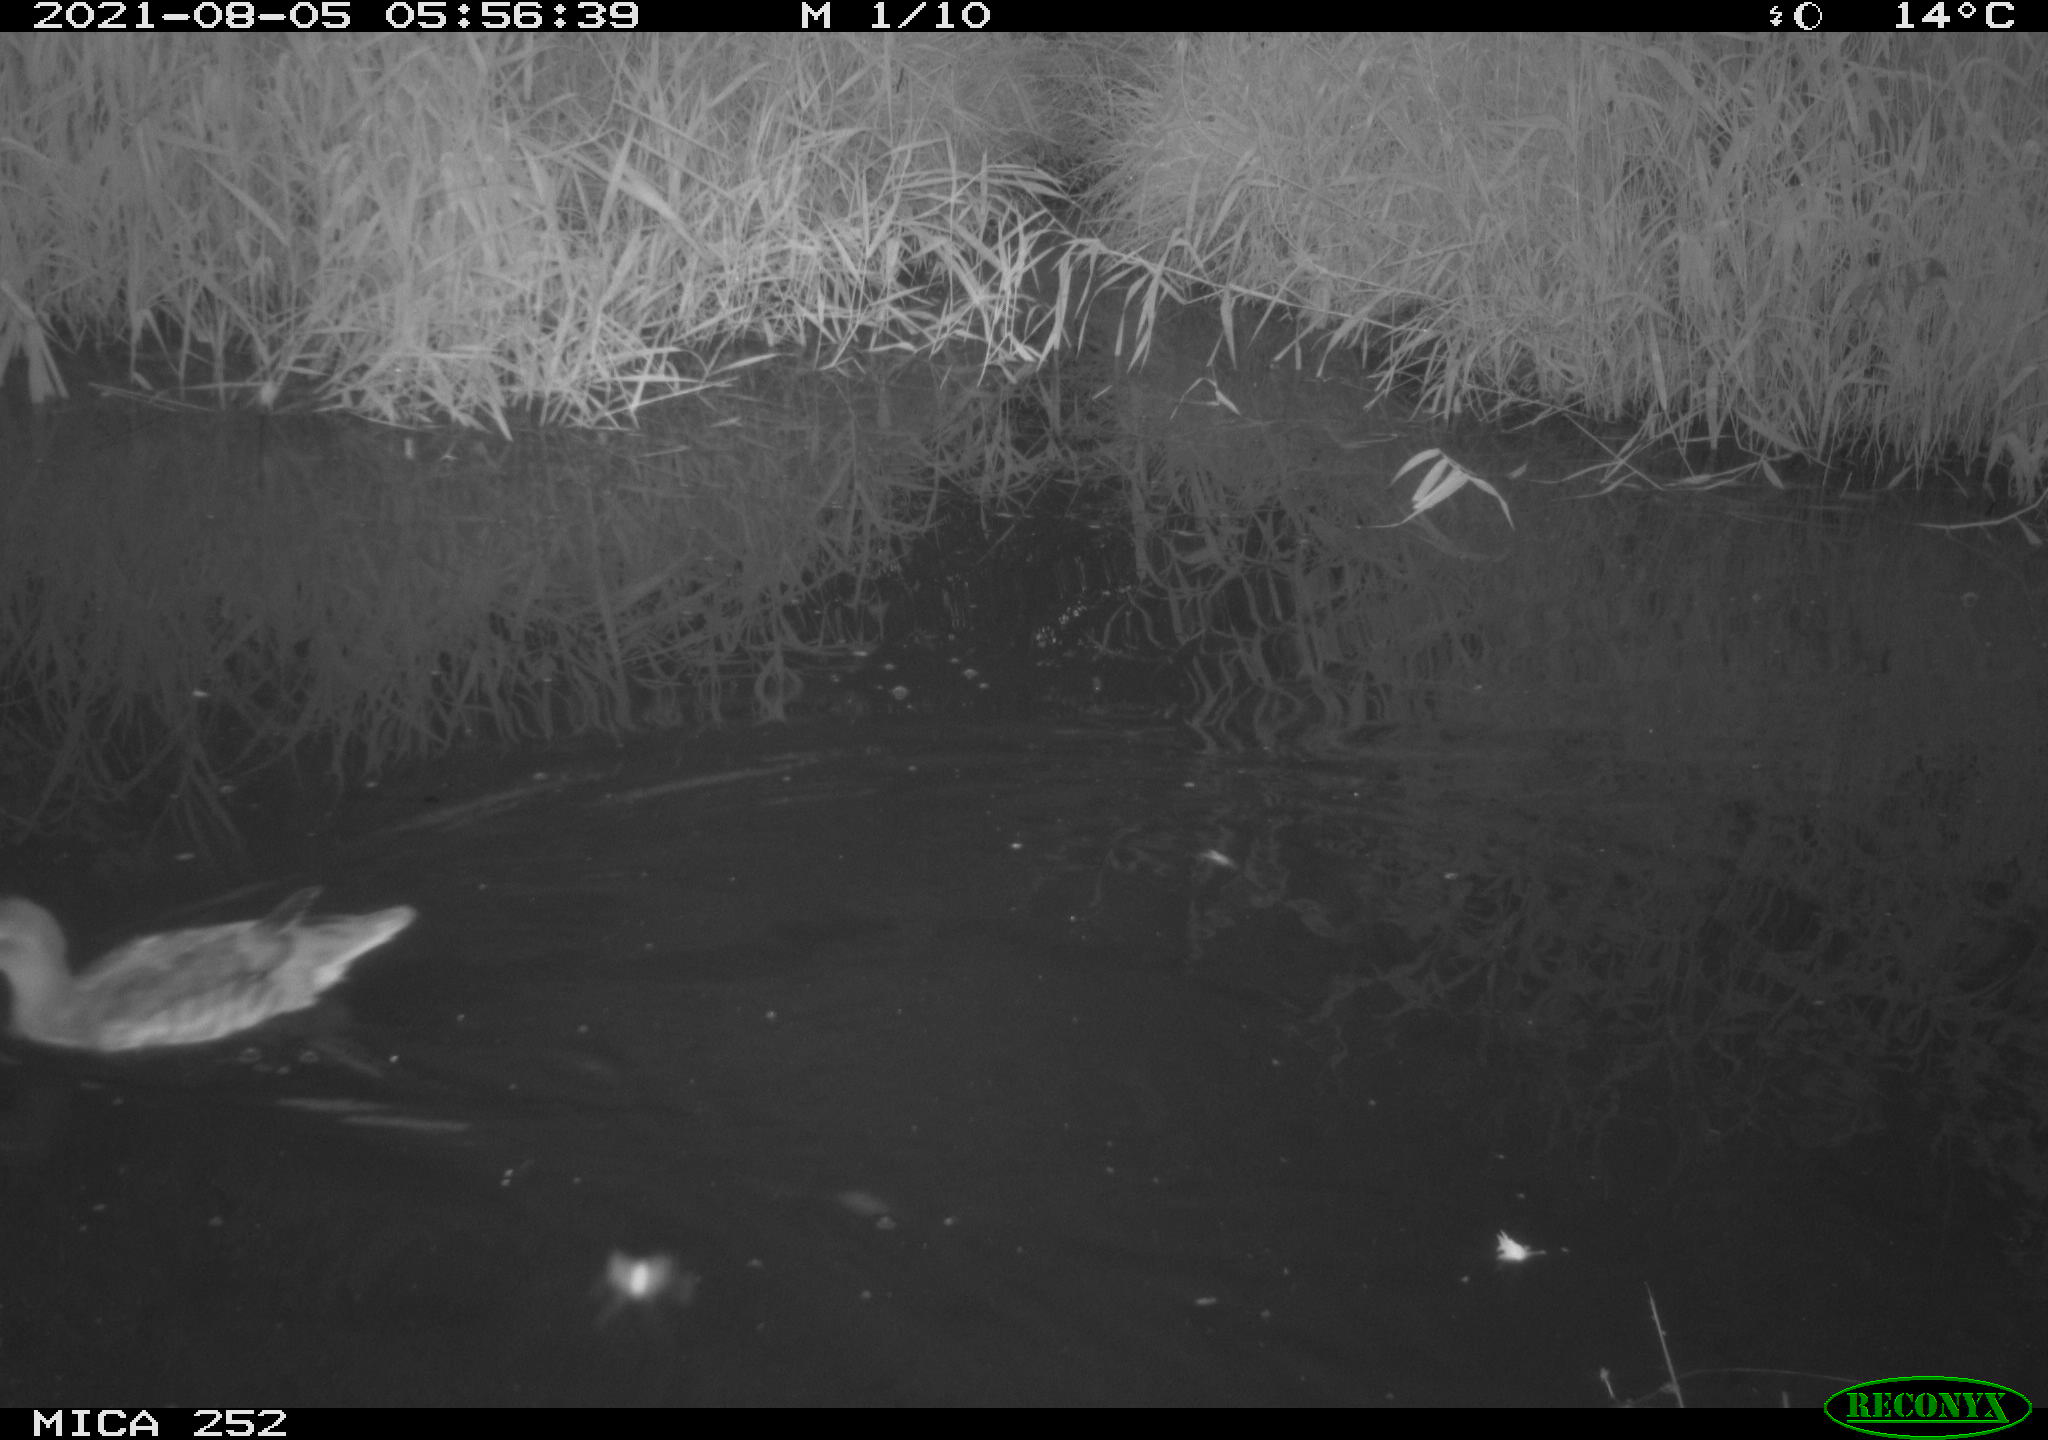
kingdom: Animalia
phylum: Chordata
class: Aves
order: Anseriformes
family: Anatidae
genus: Anas
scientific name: Anas platyrhynchos
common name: Mallard
